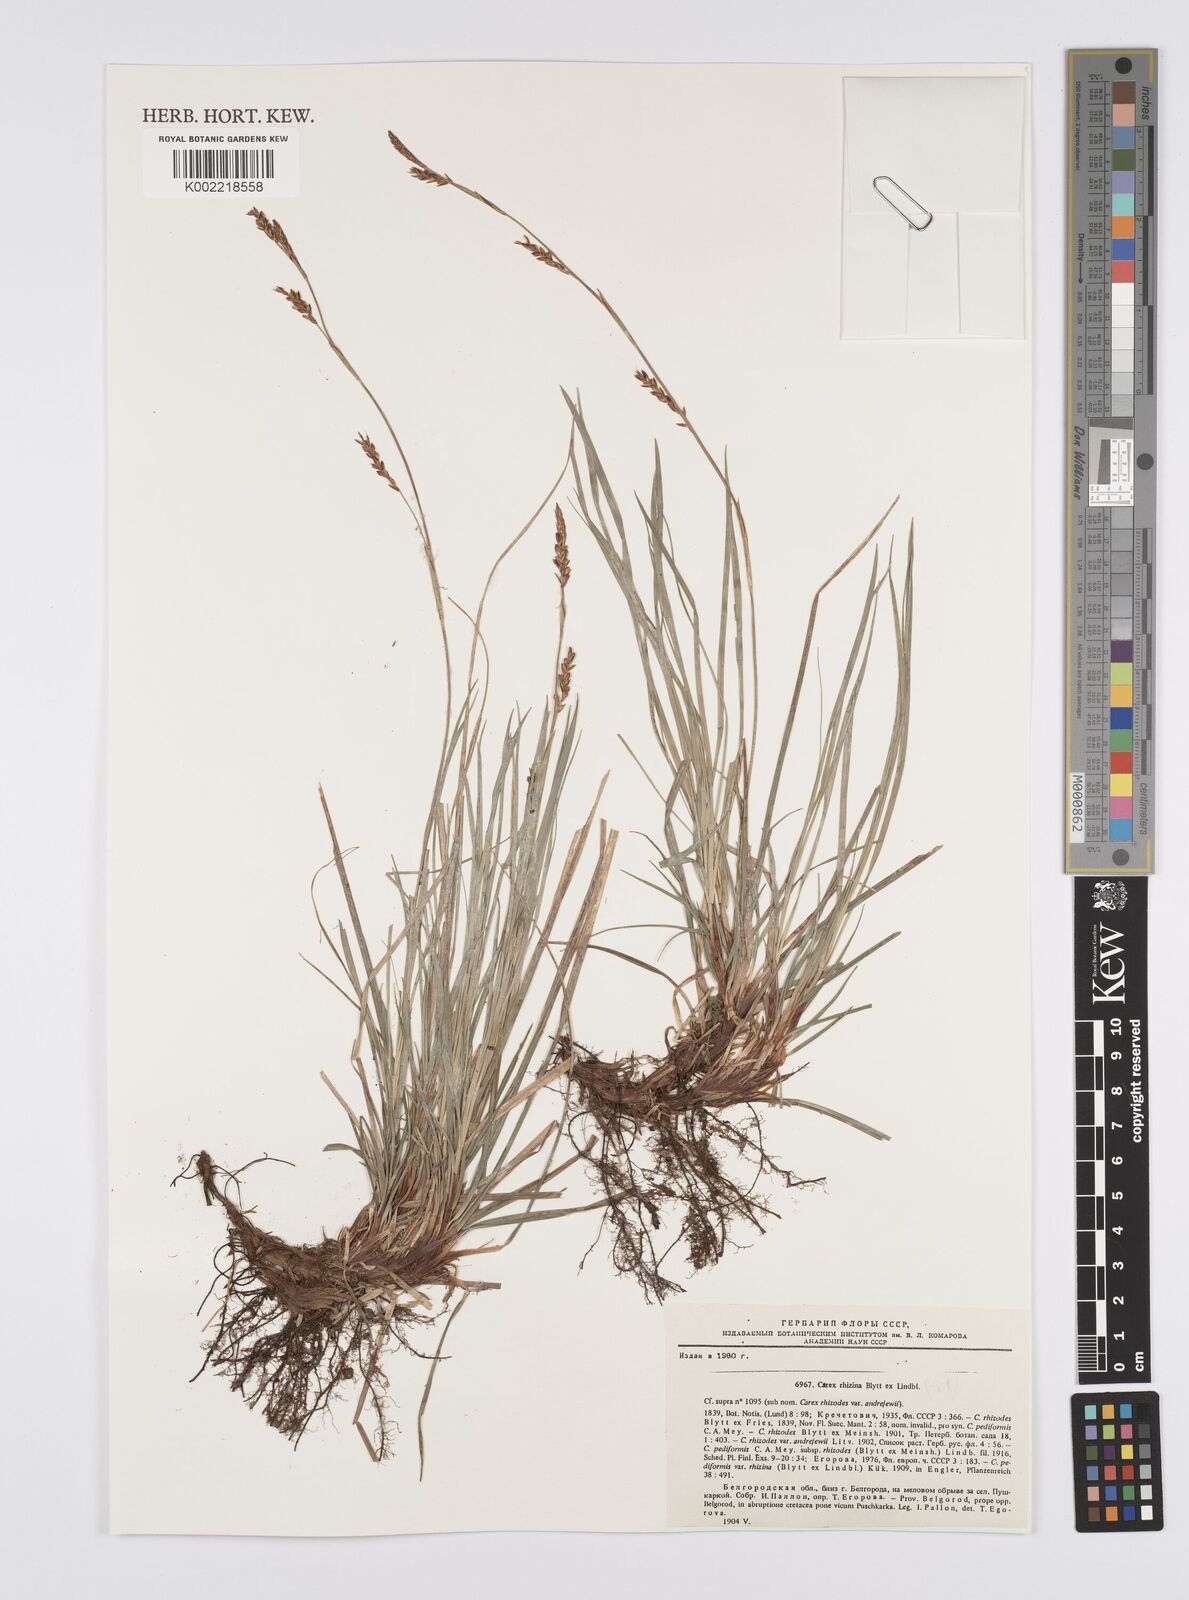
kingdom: Plantae
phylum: Tracheophyta
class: Liliopsida
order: Poales
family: Cyperaceae
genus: Carex
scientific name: Carex pediformis
